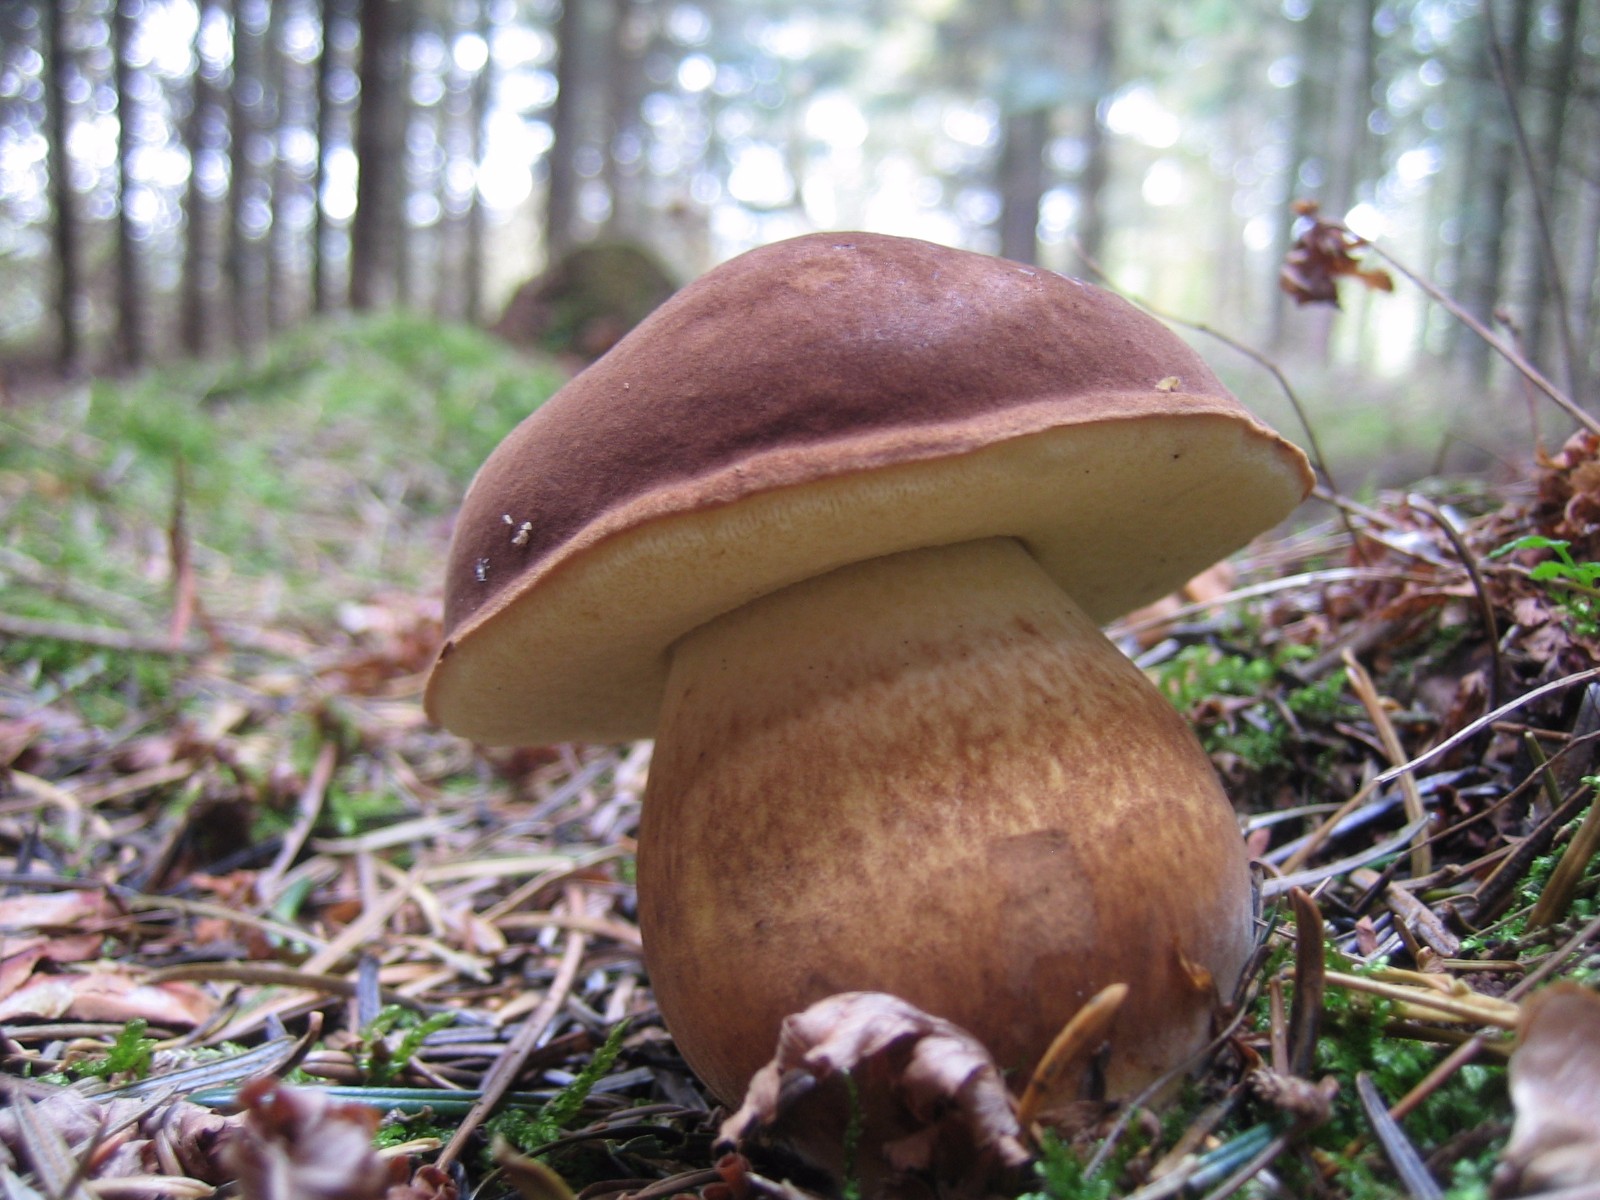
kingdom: Fungi
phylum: Basidiomycota
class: Agaricomycetes
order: Boletales
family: Boletaceae
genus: Imleria
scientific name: Imleria badia
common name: brunstokket rørhat
